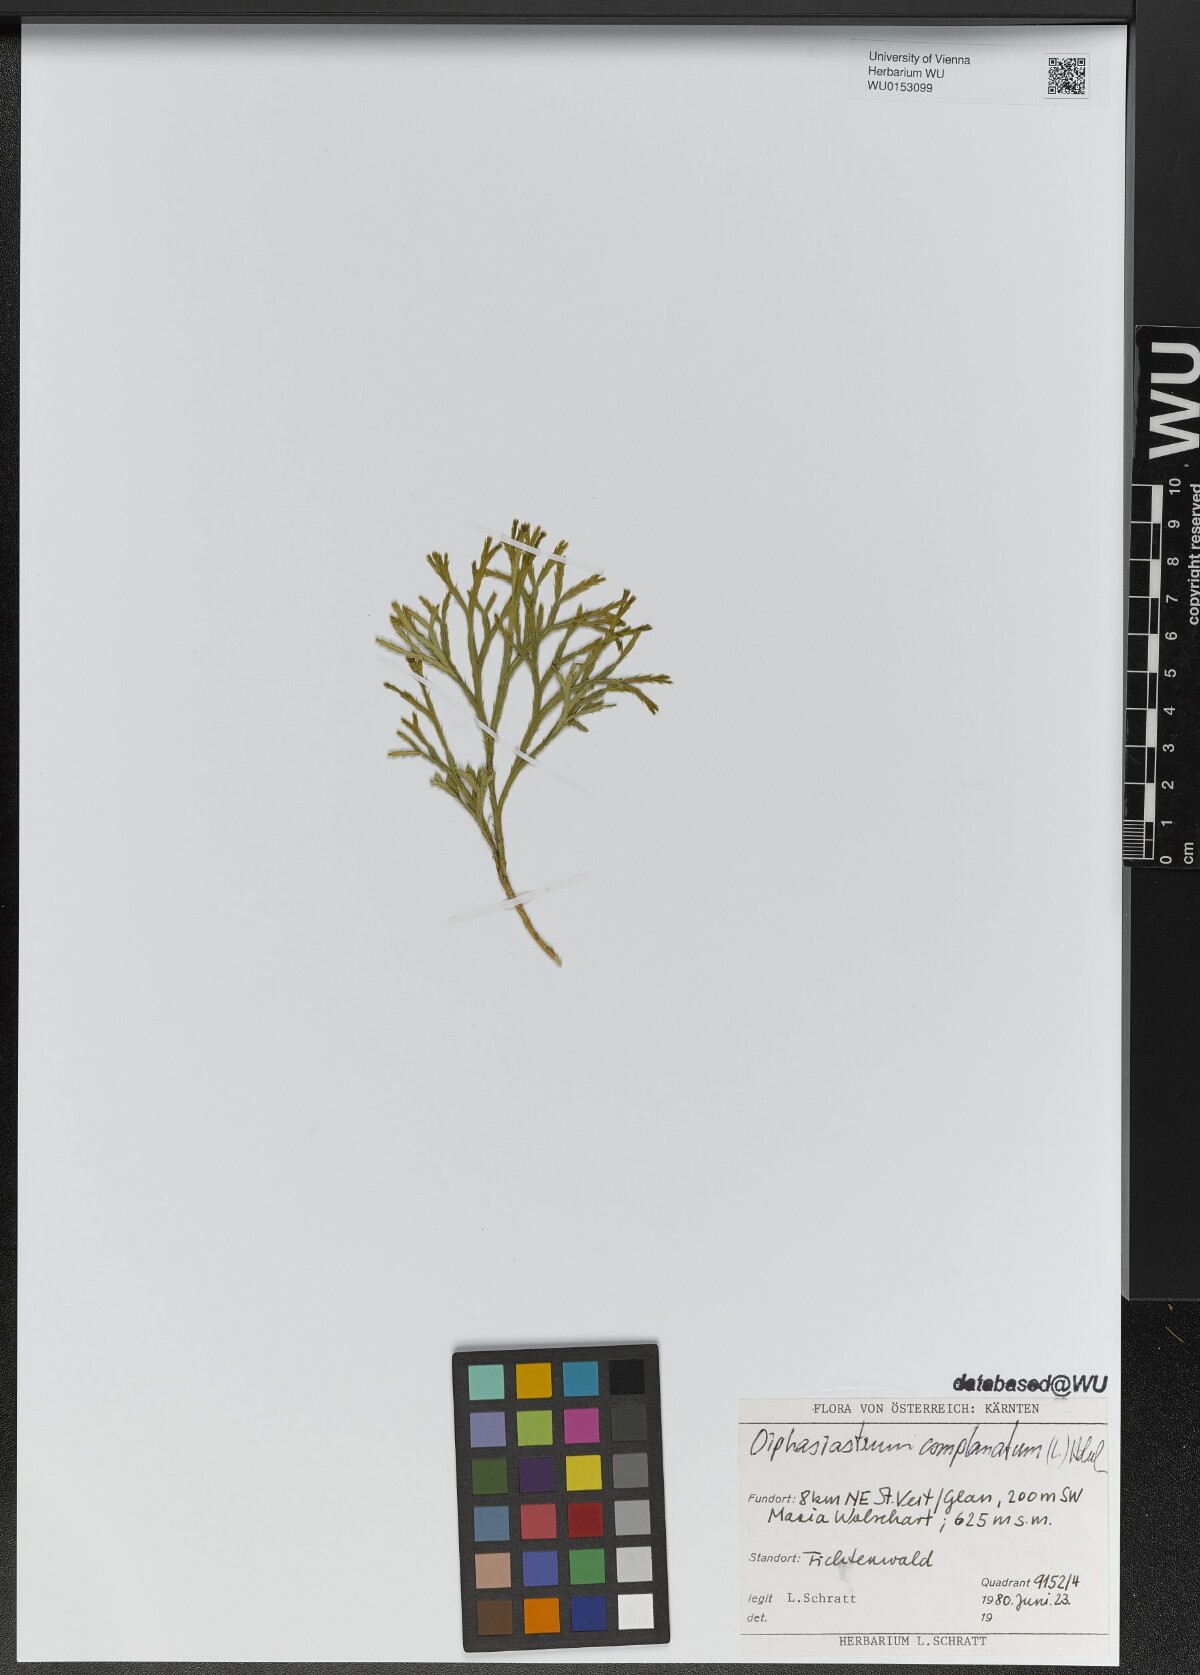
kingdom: Plantae
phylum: Tracheophyta
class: Lycopodiopsida
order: Lycopodiales
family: Lycopodiaceae
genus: Diphasiastrum
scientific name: Diphasiastrum complanatum
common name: Northern running-pine
